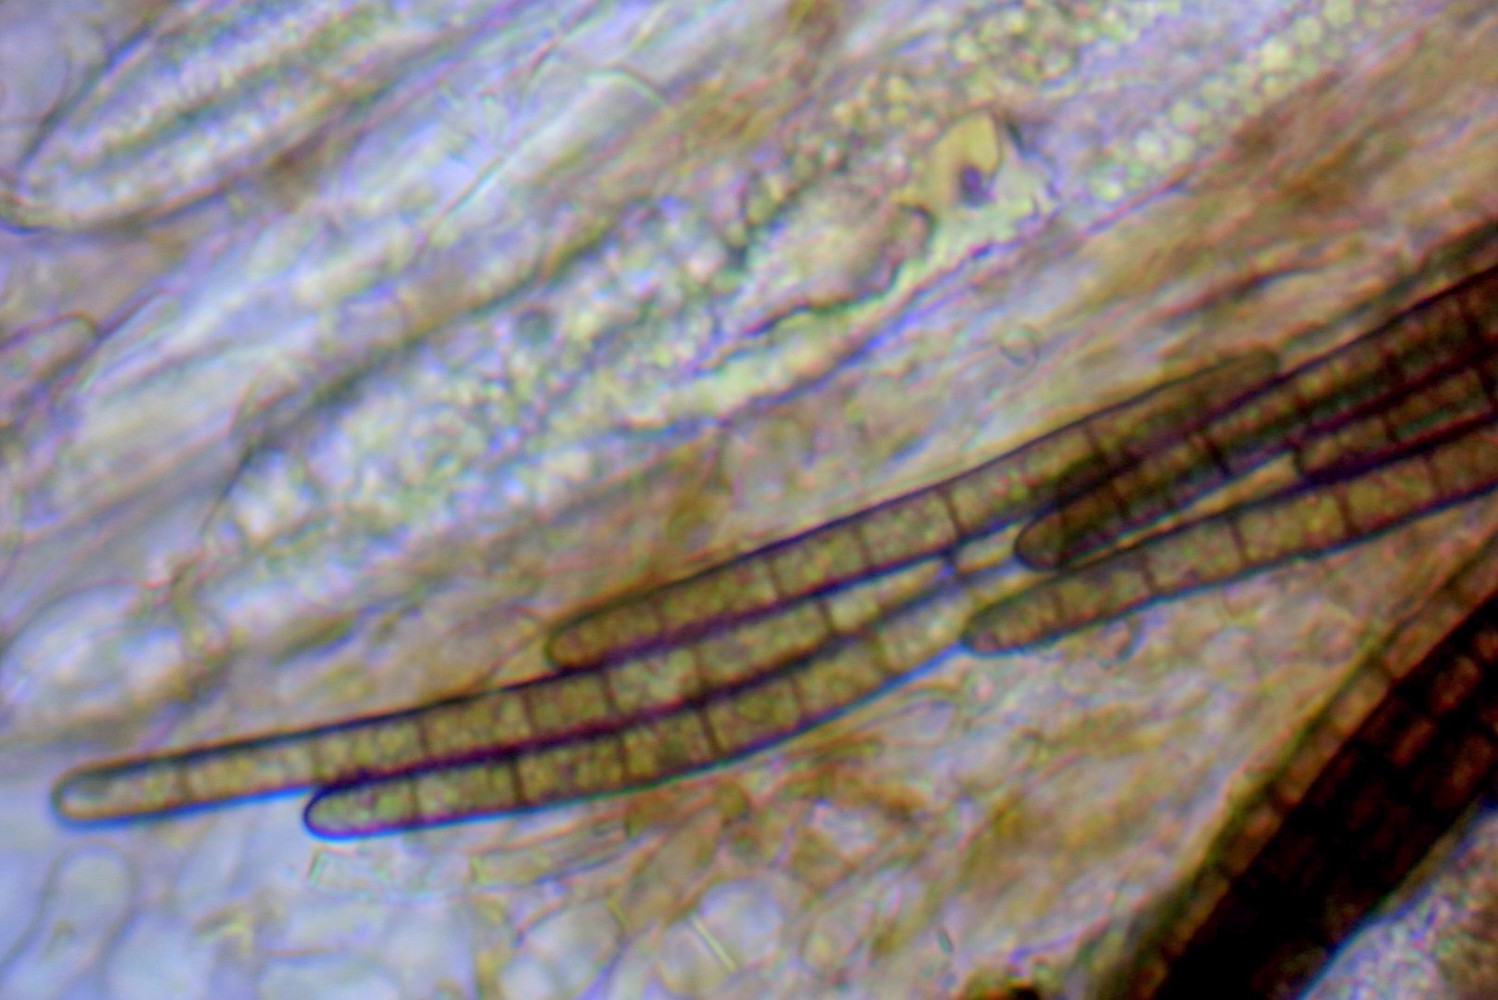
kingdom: Fungi
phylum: Ascomycota
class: Geoglossomycetes
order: Geoglossales
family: Geoglossaceae
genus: Geoglossum
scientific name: Geoglossum umbratile
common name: slank jordtunge
